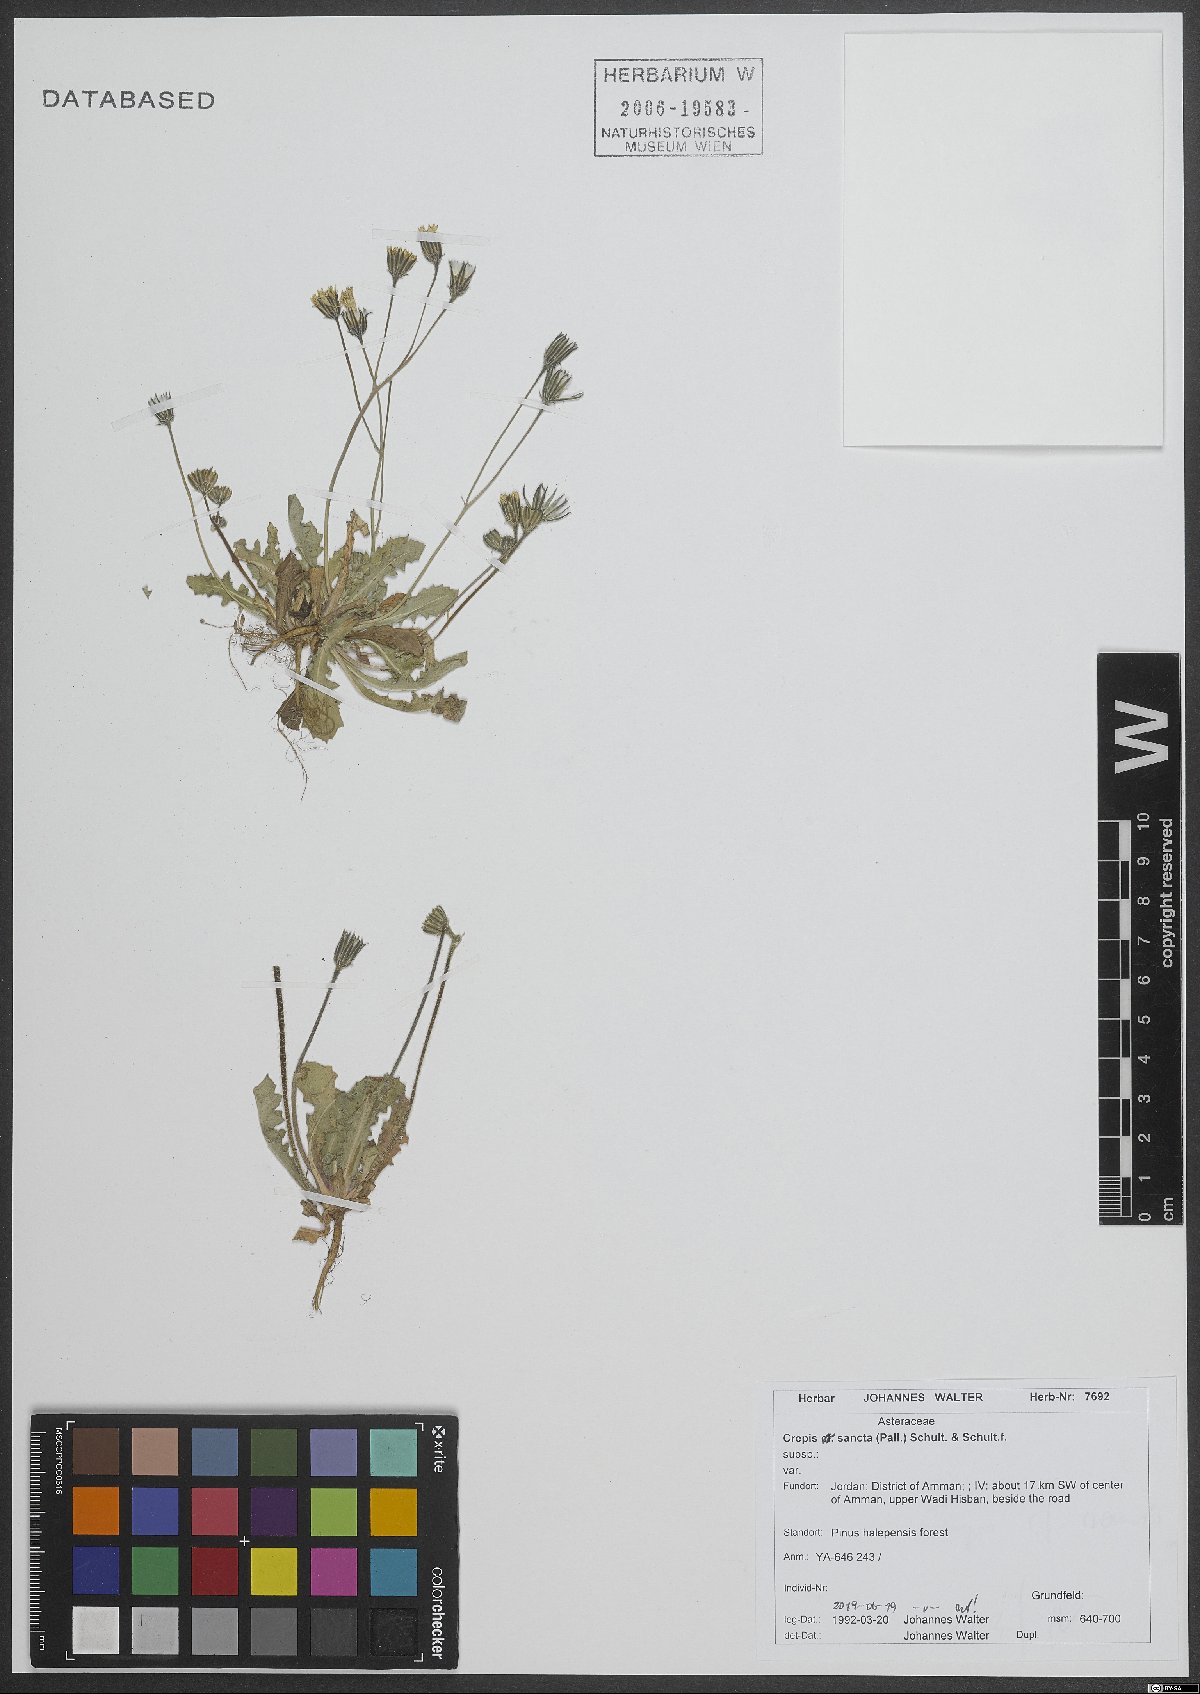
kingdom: Plantae
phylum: Tracheophyta
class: Magnoliopsida
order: Asterales
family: Asteraceae
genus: Crepis
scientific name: Crepis sancta
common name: Hawk's-beard
